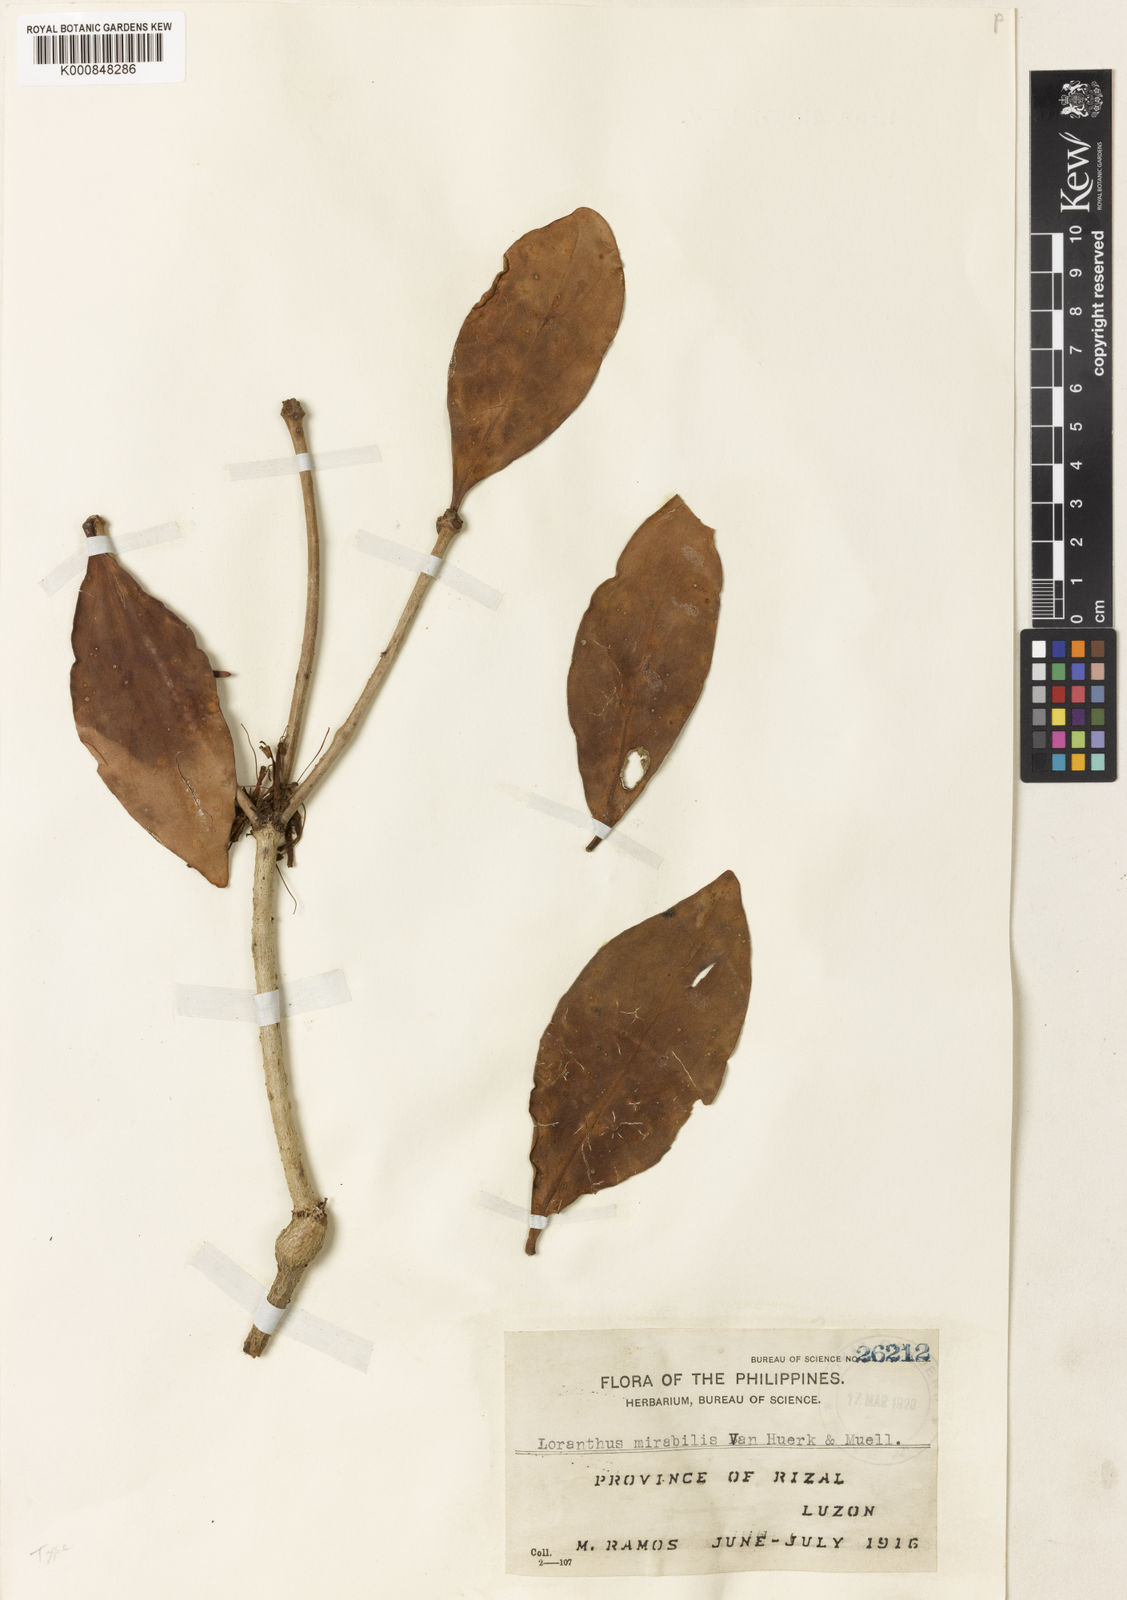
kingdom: Plantae
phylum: Tracheophyta
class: Magnoliopsida
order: Santalales
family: Loranthaceae
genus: Amyema
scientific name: Amyema fasciculata
